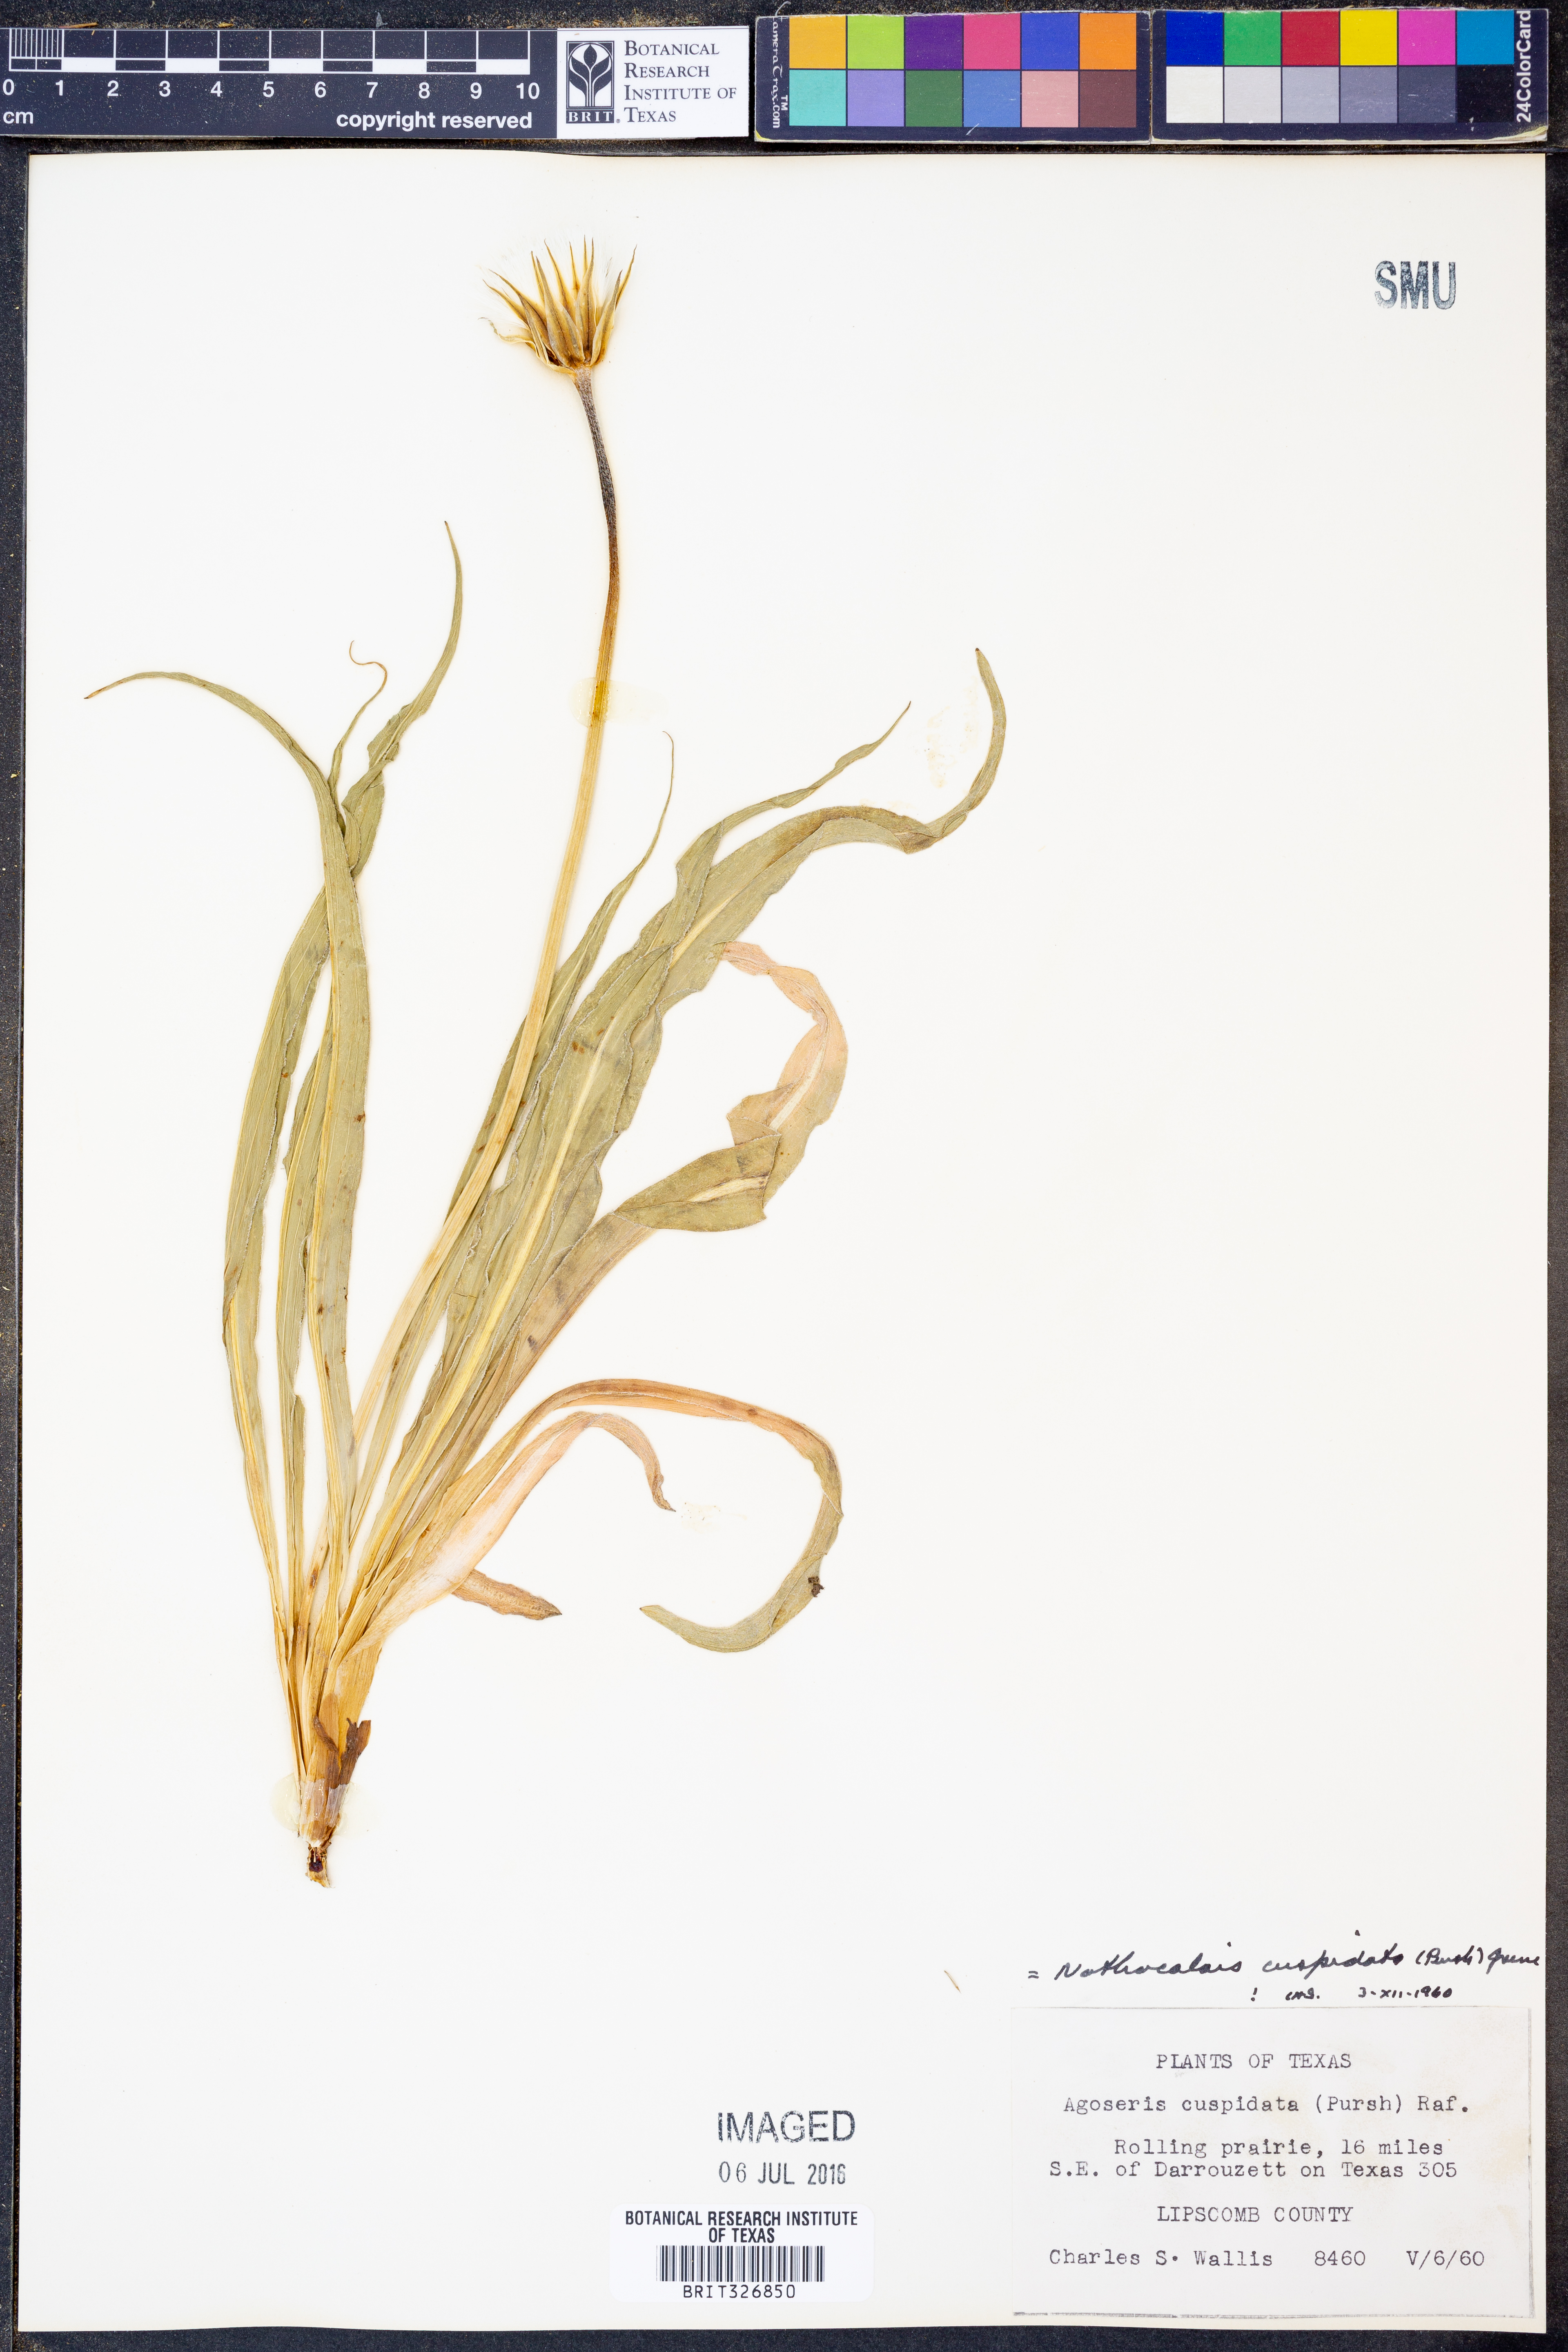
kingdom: Plantae
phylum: Tracheophyta
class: Magnoliopsida
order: Asterales
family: Asteraceae
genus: Microseris
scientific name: Microseris cuspidata
